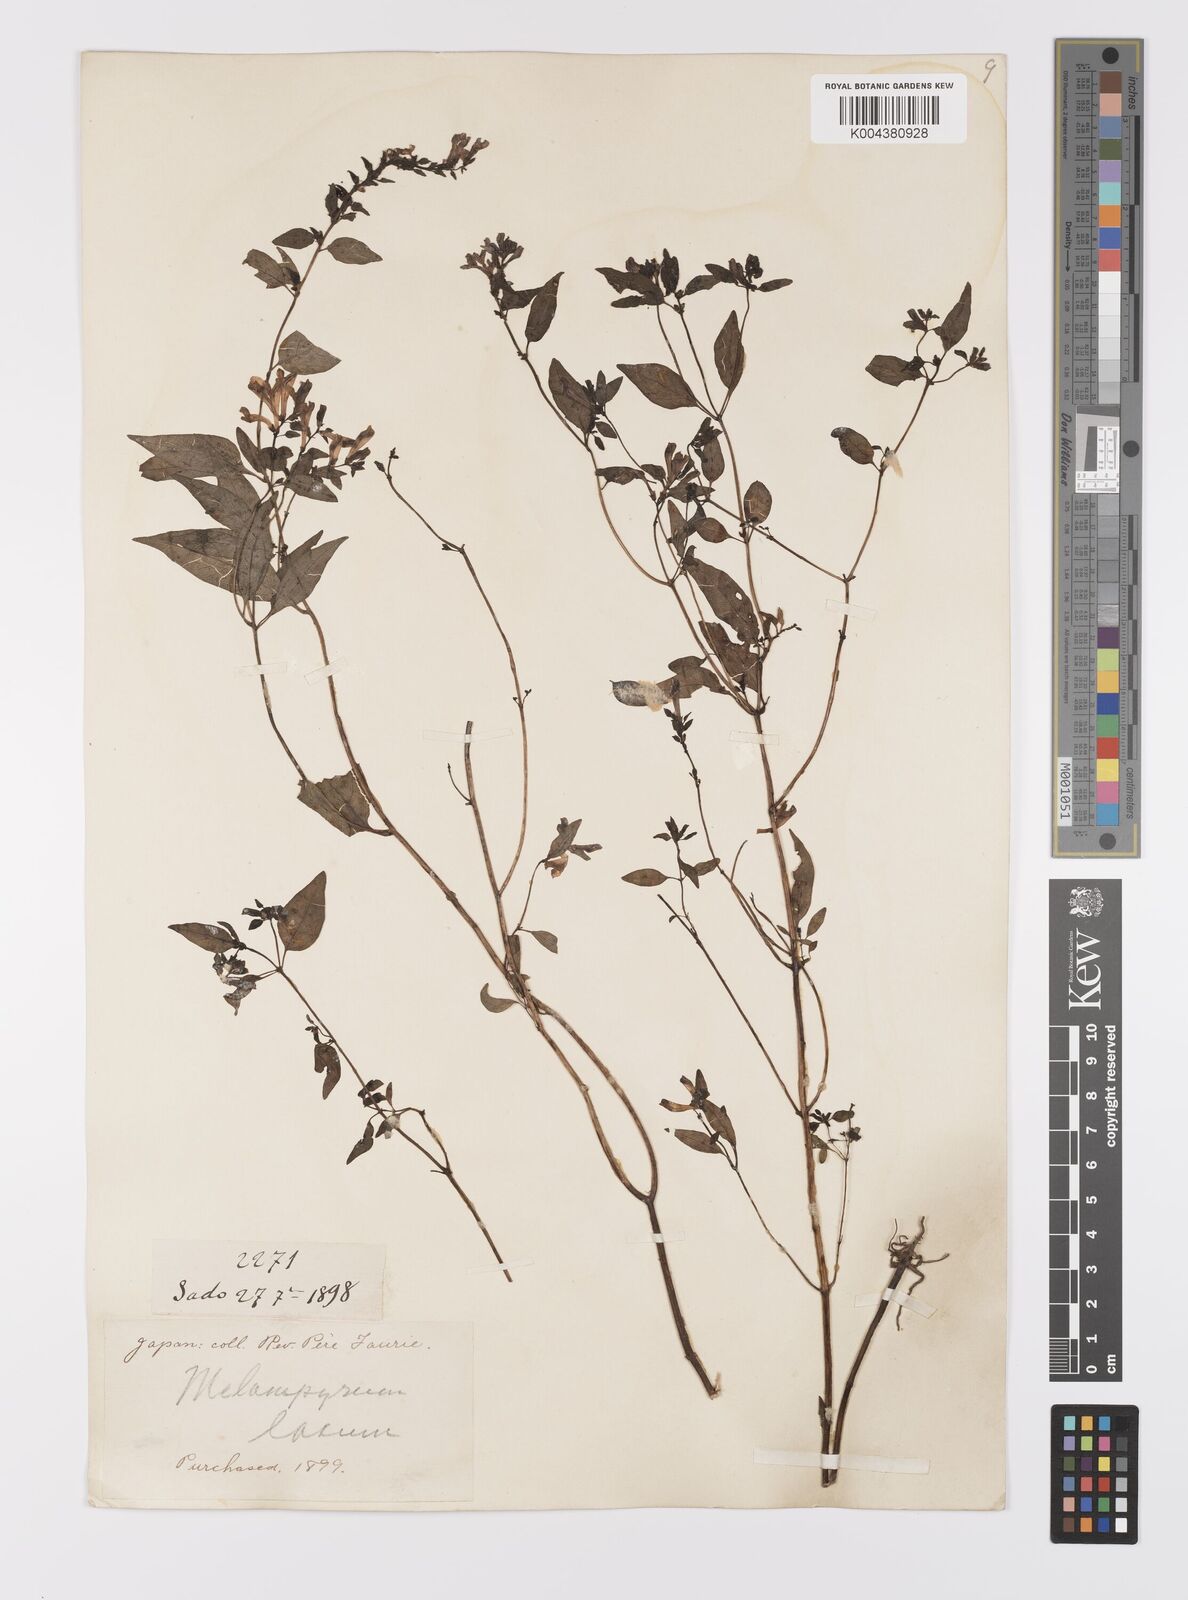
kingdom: Plantae
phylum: Tracheophyta
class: Magnoliopsida
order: Lamiales
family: Orobanchaceae
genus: Melampyrum
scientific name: Melampyrum laxum
